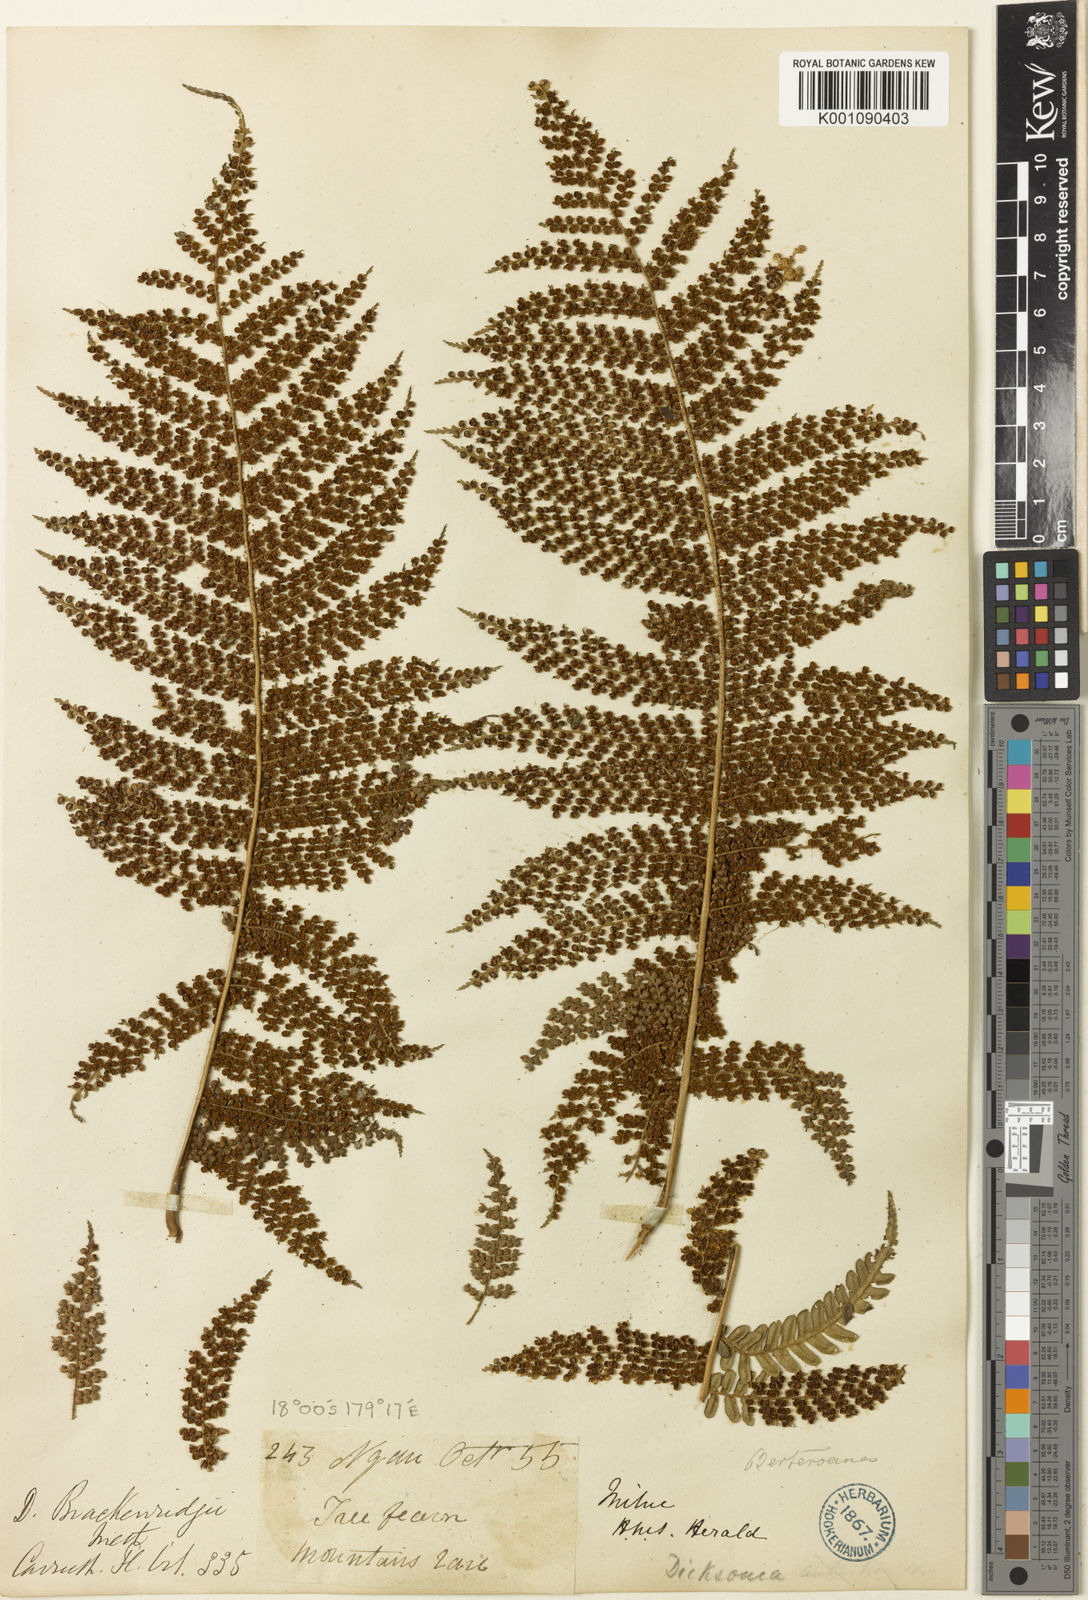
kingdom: Plantae
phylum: Tracheophyta
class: Polypodiopsida
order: Cyatheales
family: Dicksoniaceae
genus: Dicksonia
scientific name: Dicksonia brackenridgei
